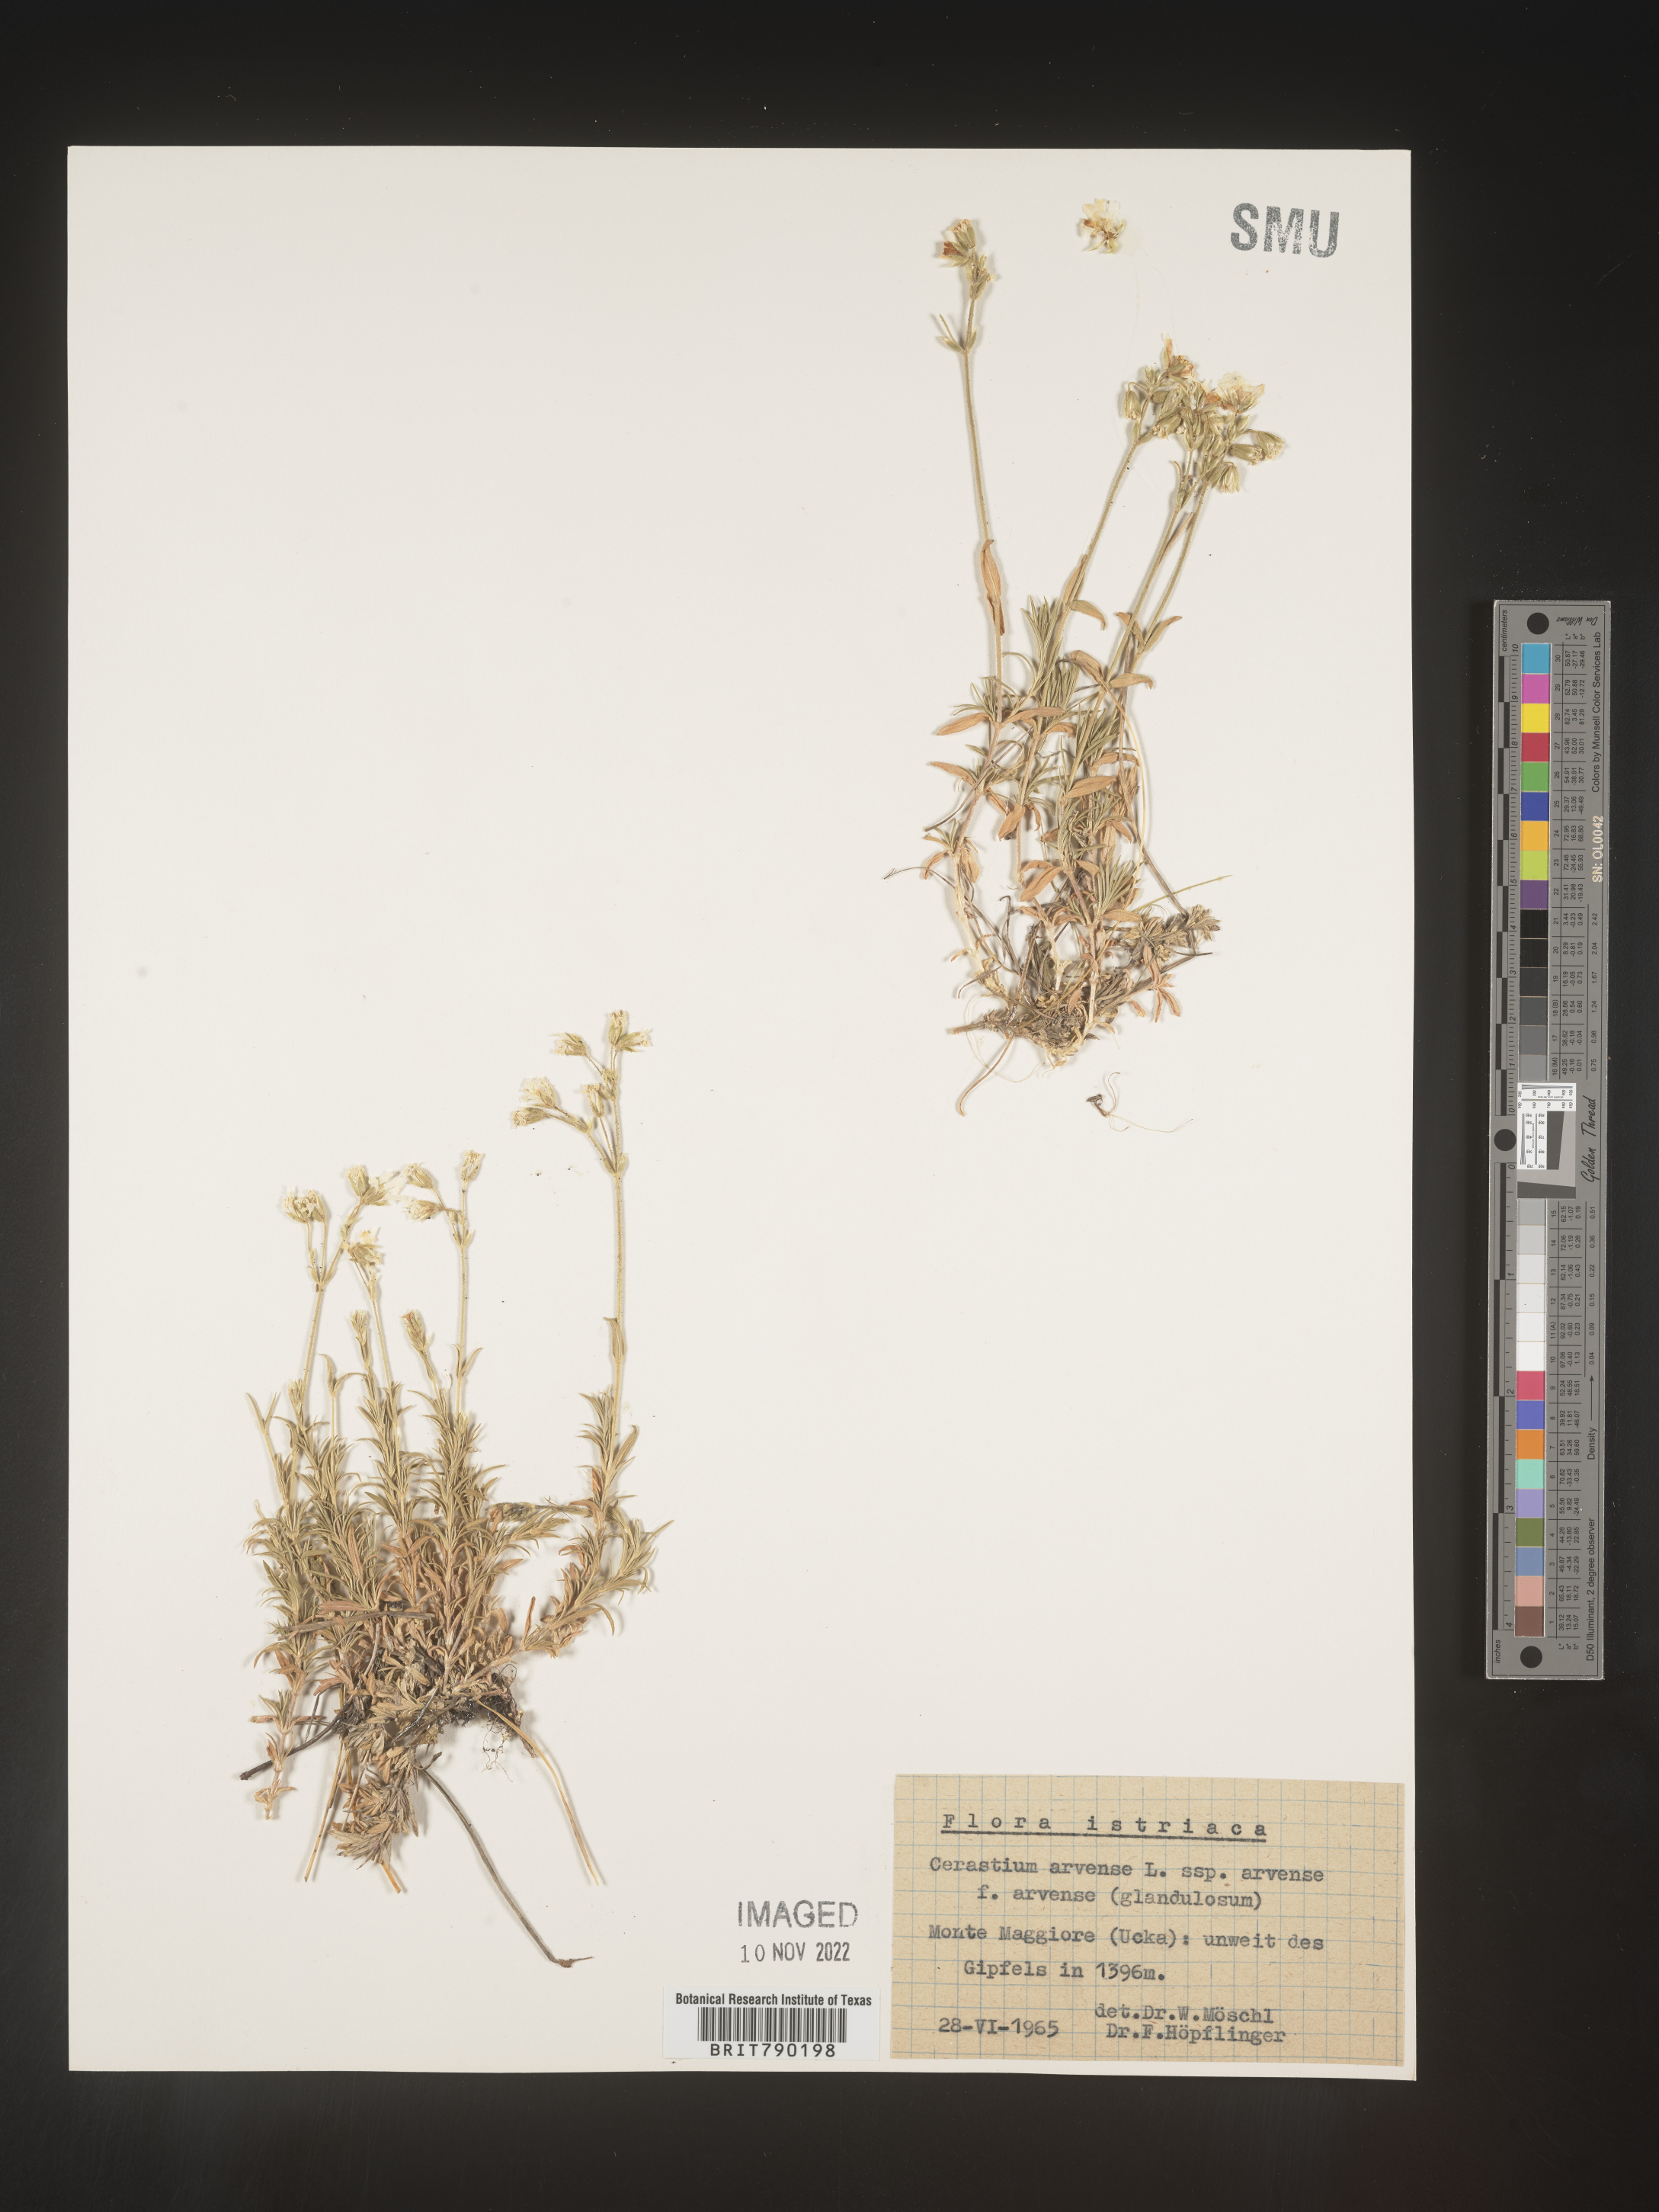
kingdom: Plantae
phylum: Tracheophyta
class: Magnoliopsida
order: Caryophyllales
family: Caryophyllaceae
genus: Cerastium
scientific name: Cerastium
